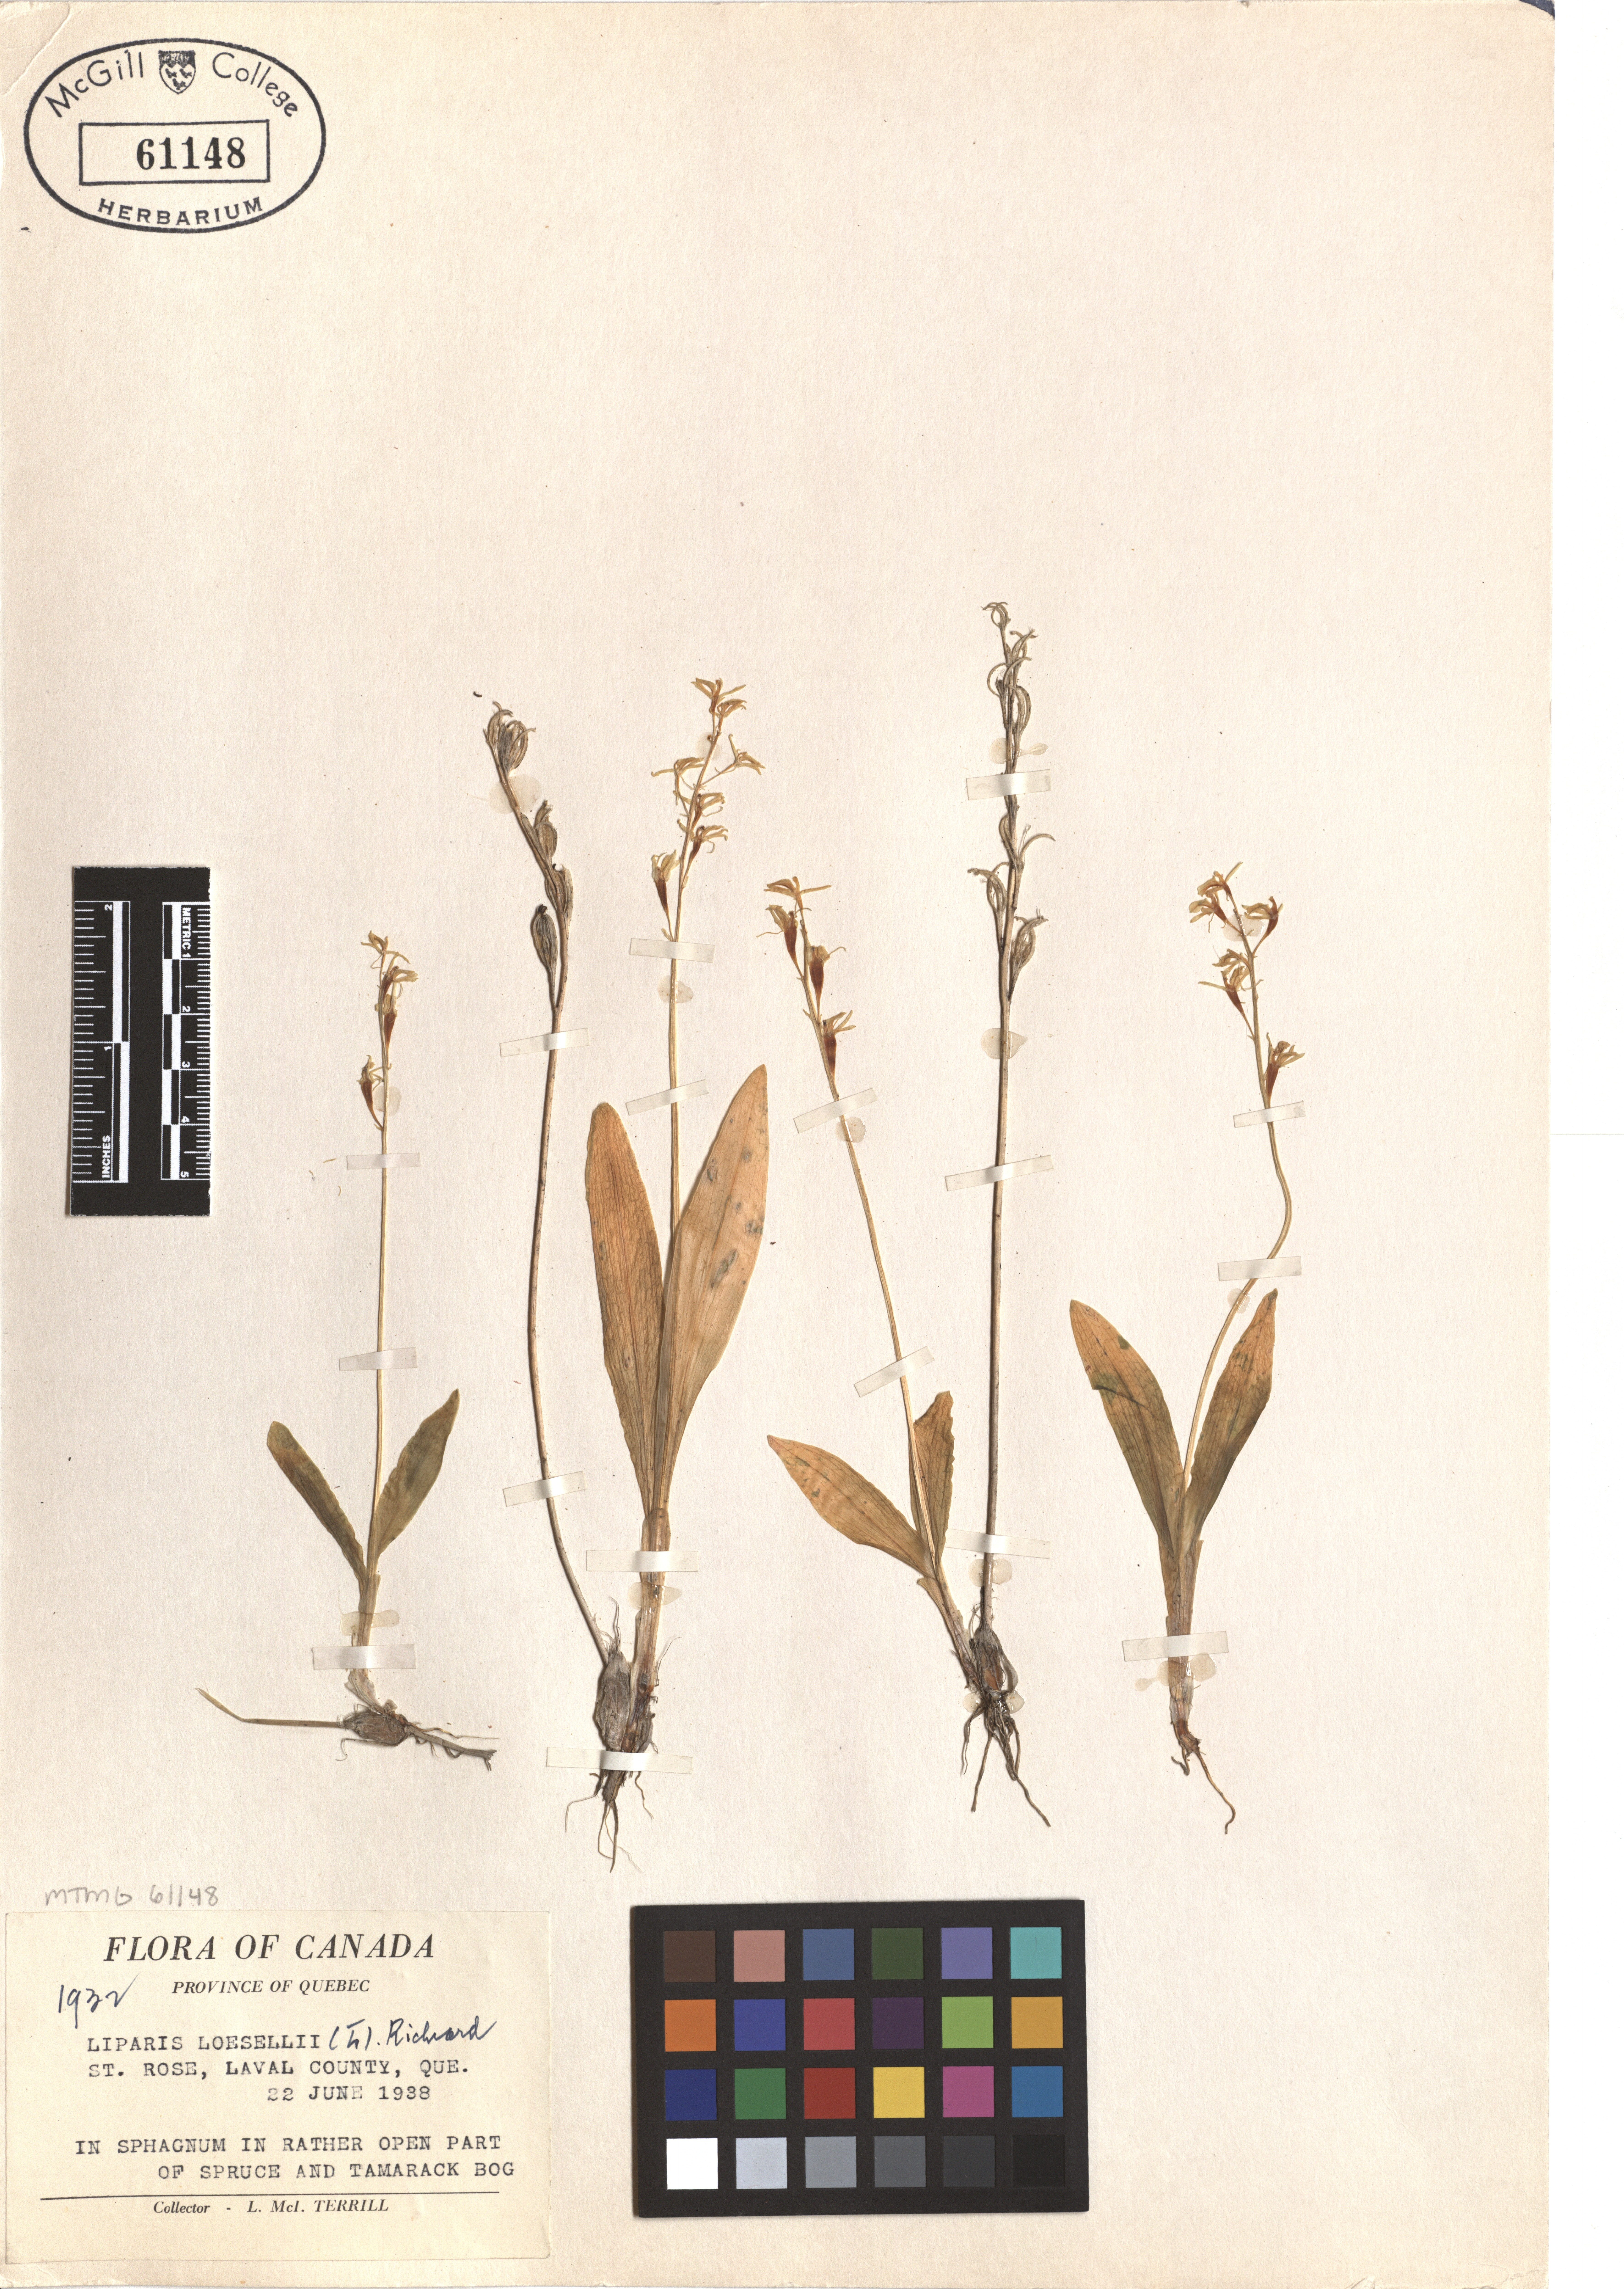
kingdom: Animalia
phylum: Arthropoda
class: Insecta
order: Coleoptera
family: Curculionidae
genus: Liparis
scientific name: Liparis loeselii
